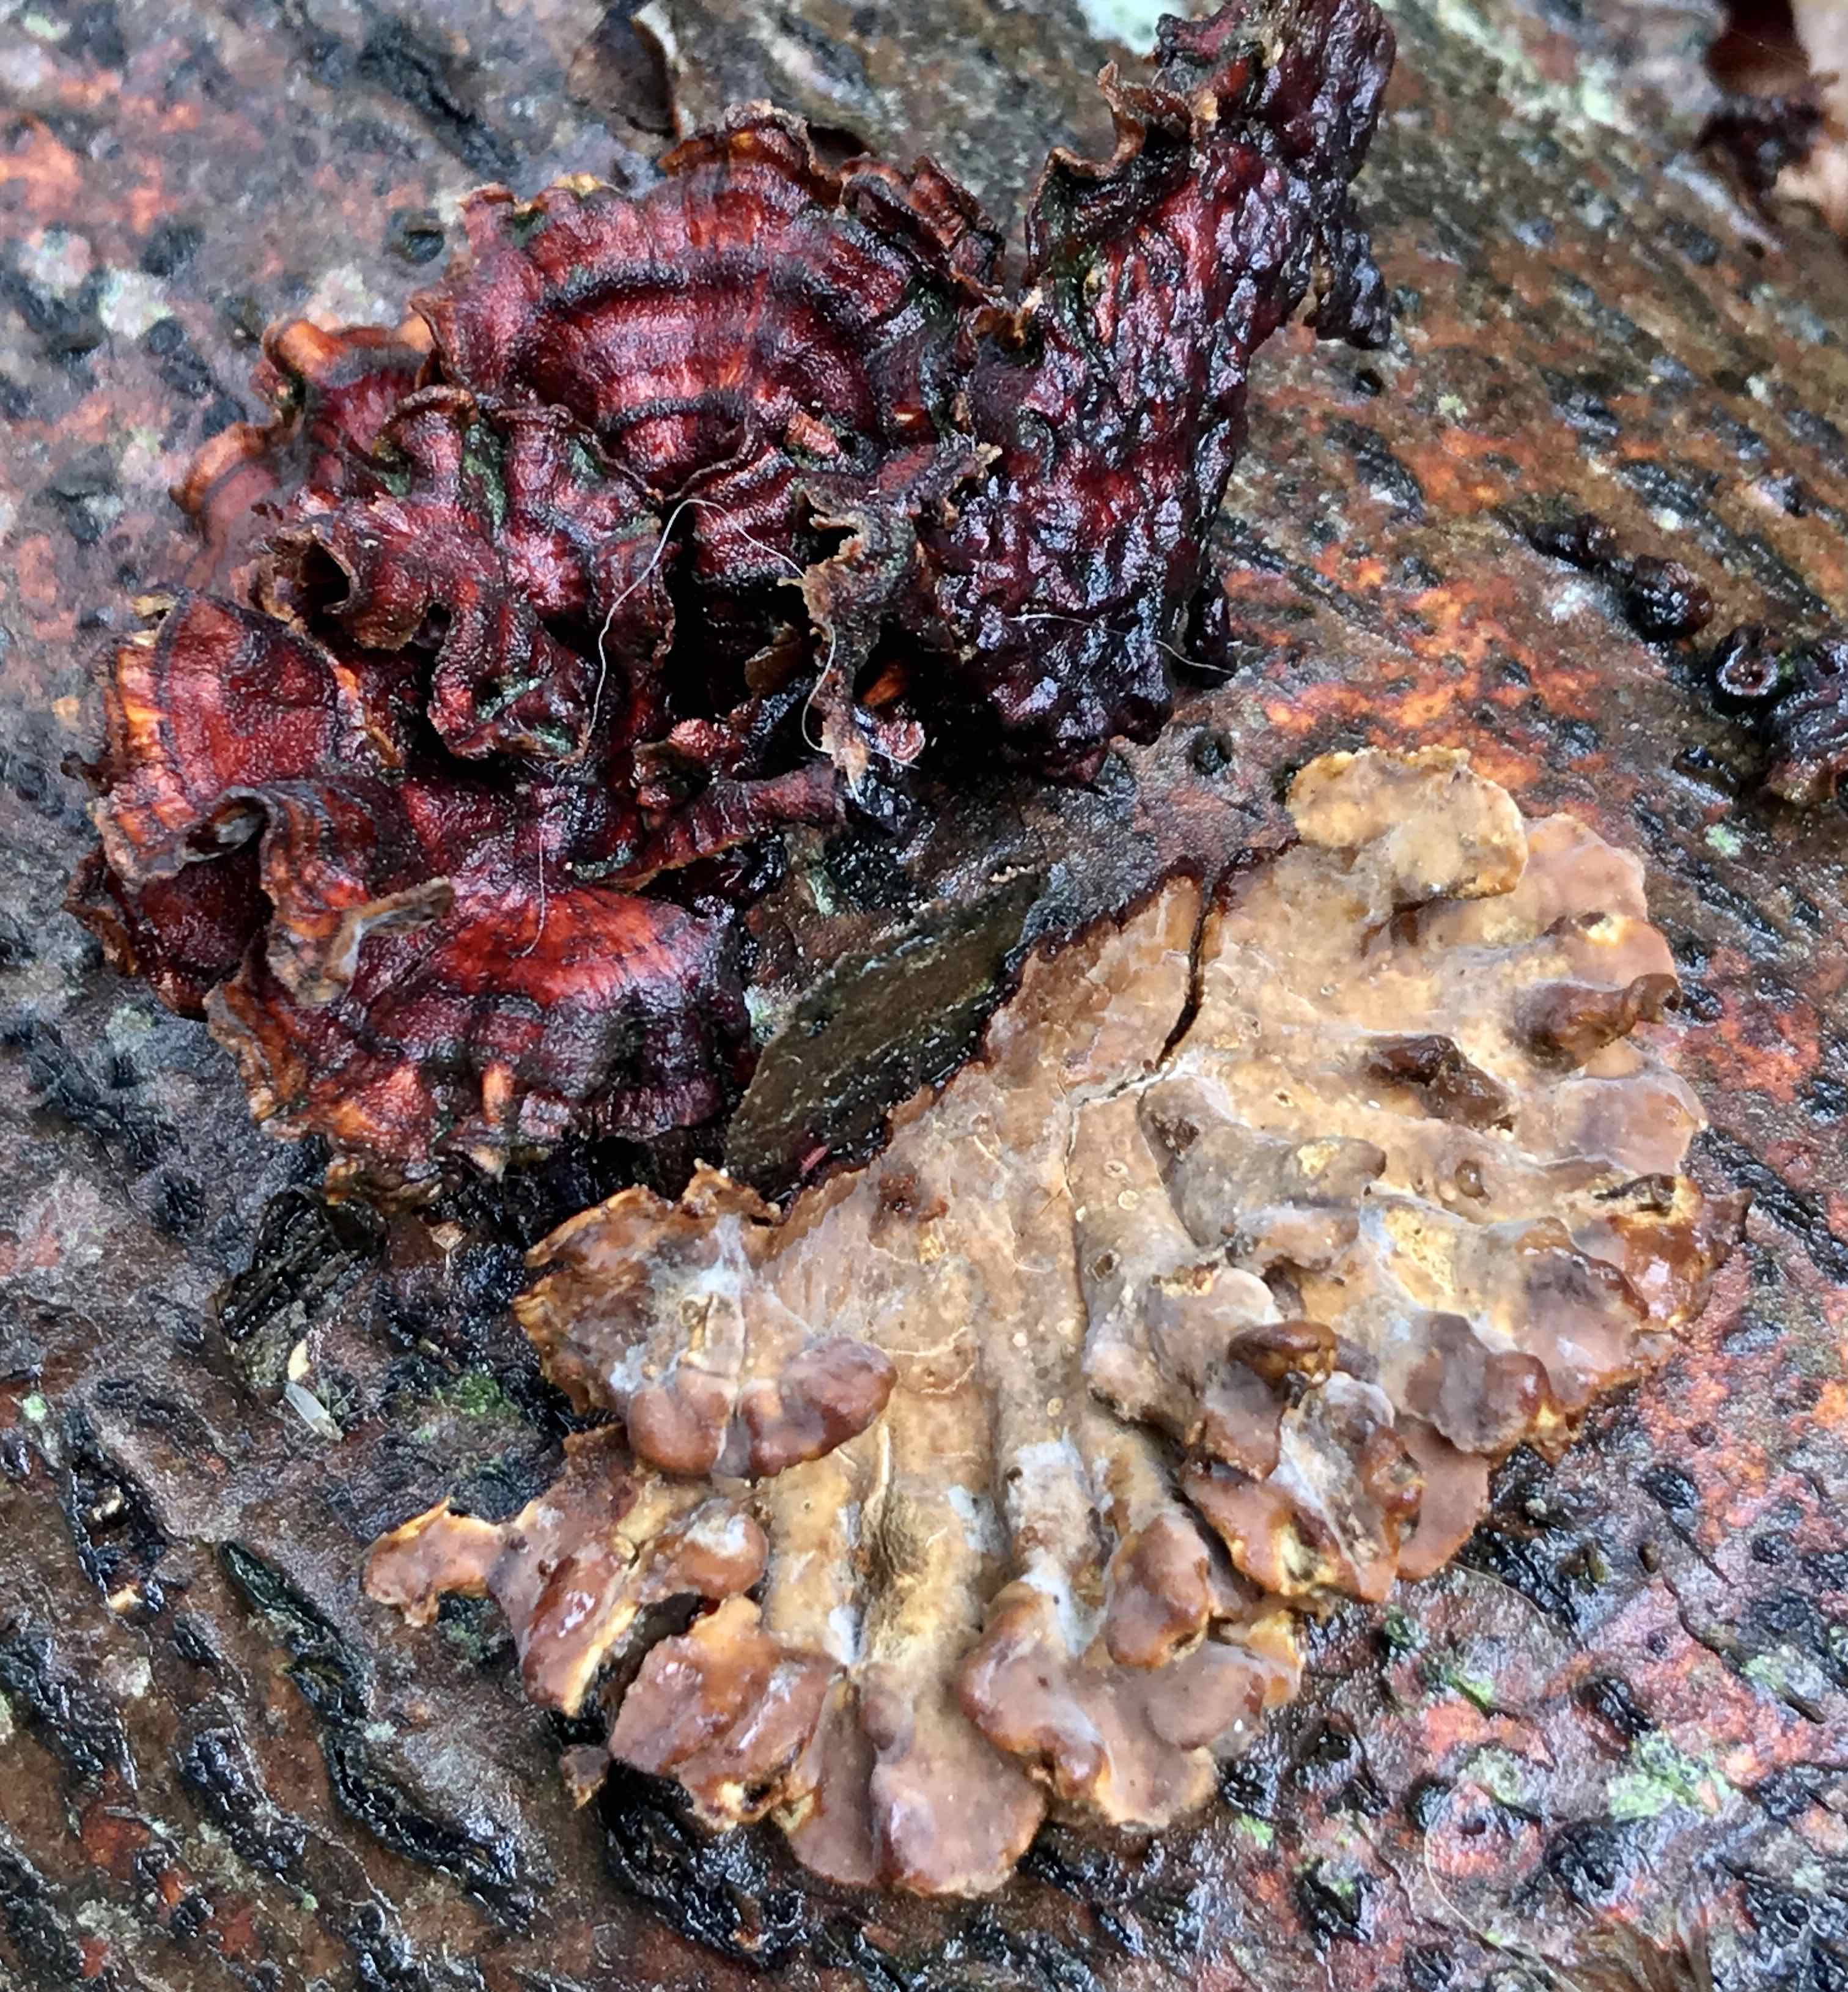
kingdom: Fungi
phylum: Basidiomycota
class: Agaricomycetes
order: Russulales
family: Stereaceae
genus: Stereum
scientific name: Stereum subtomentosum
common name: smuk lædersvamp
